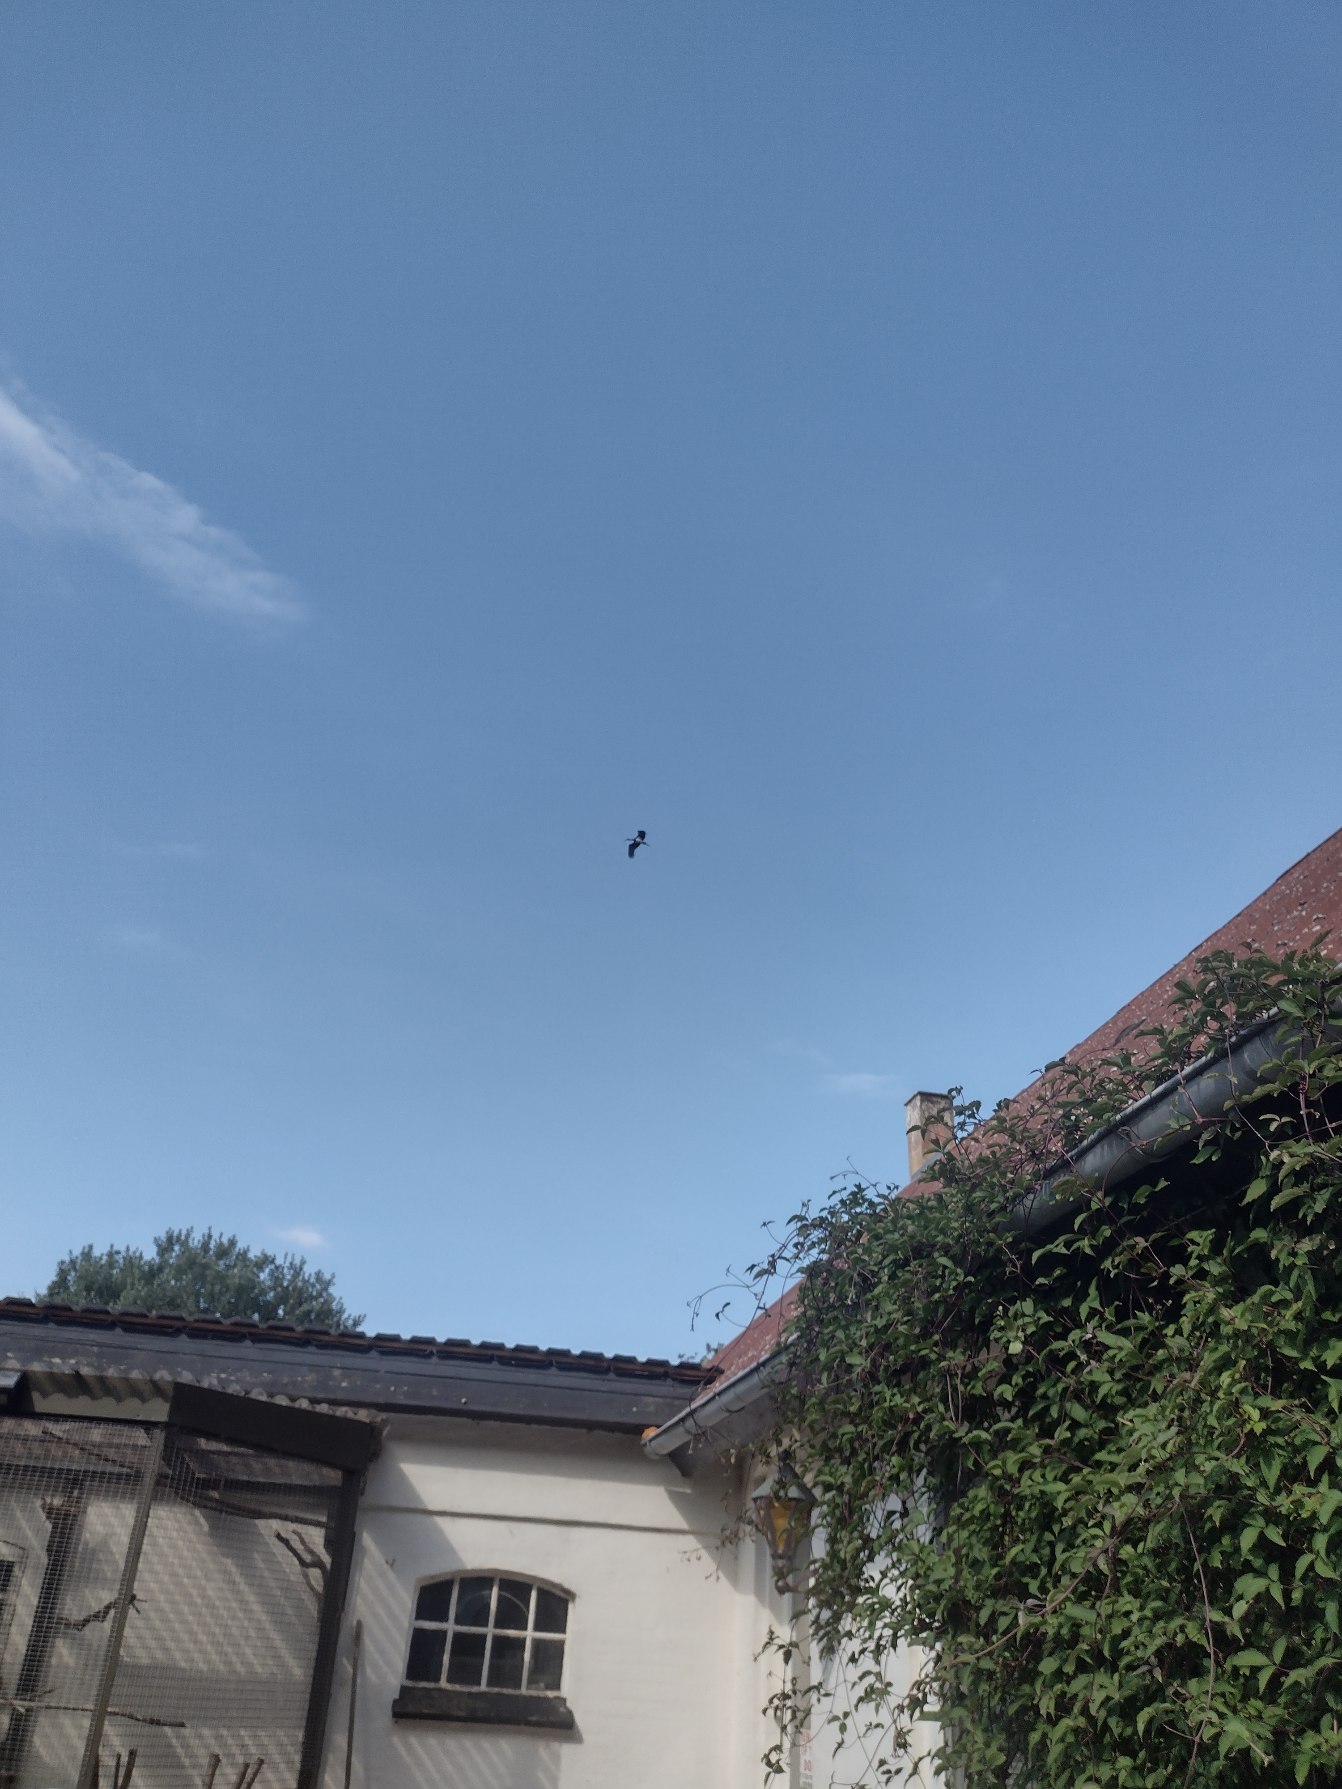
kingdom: Animalia
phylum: Chordata
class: Aves
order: Ciconiiformes
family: Ciconiidae
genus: Ciconia
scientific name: Ciconia nigra
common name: Sort stork
